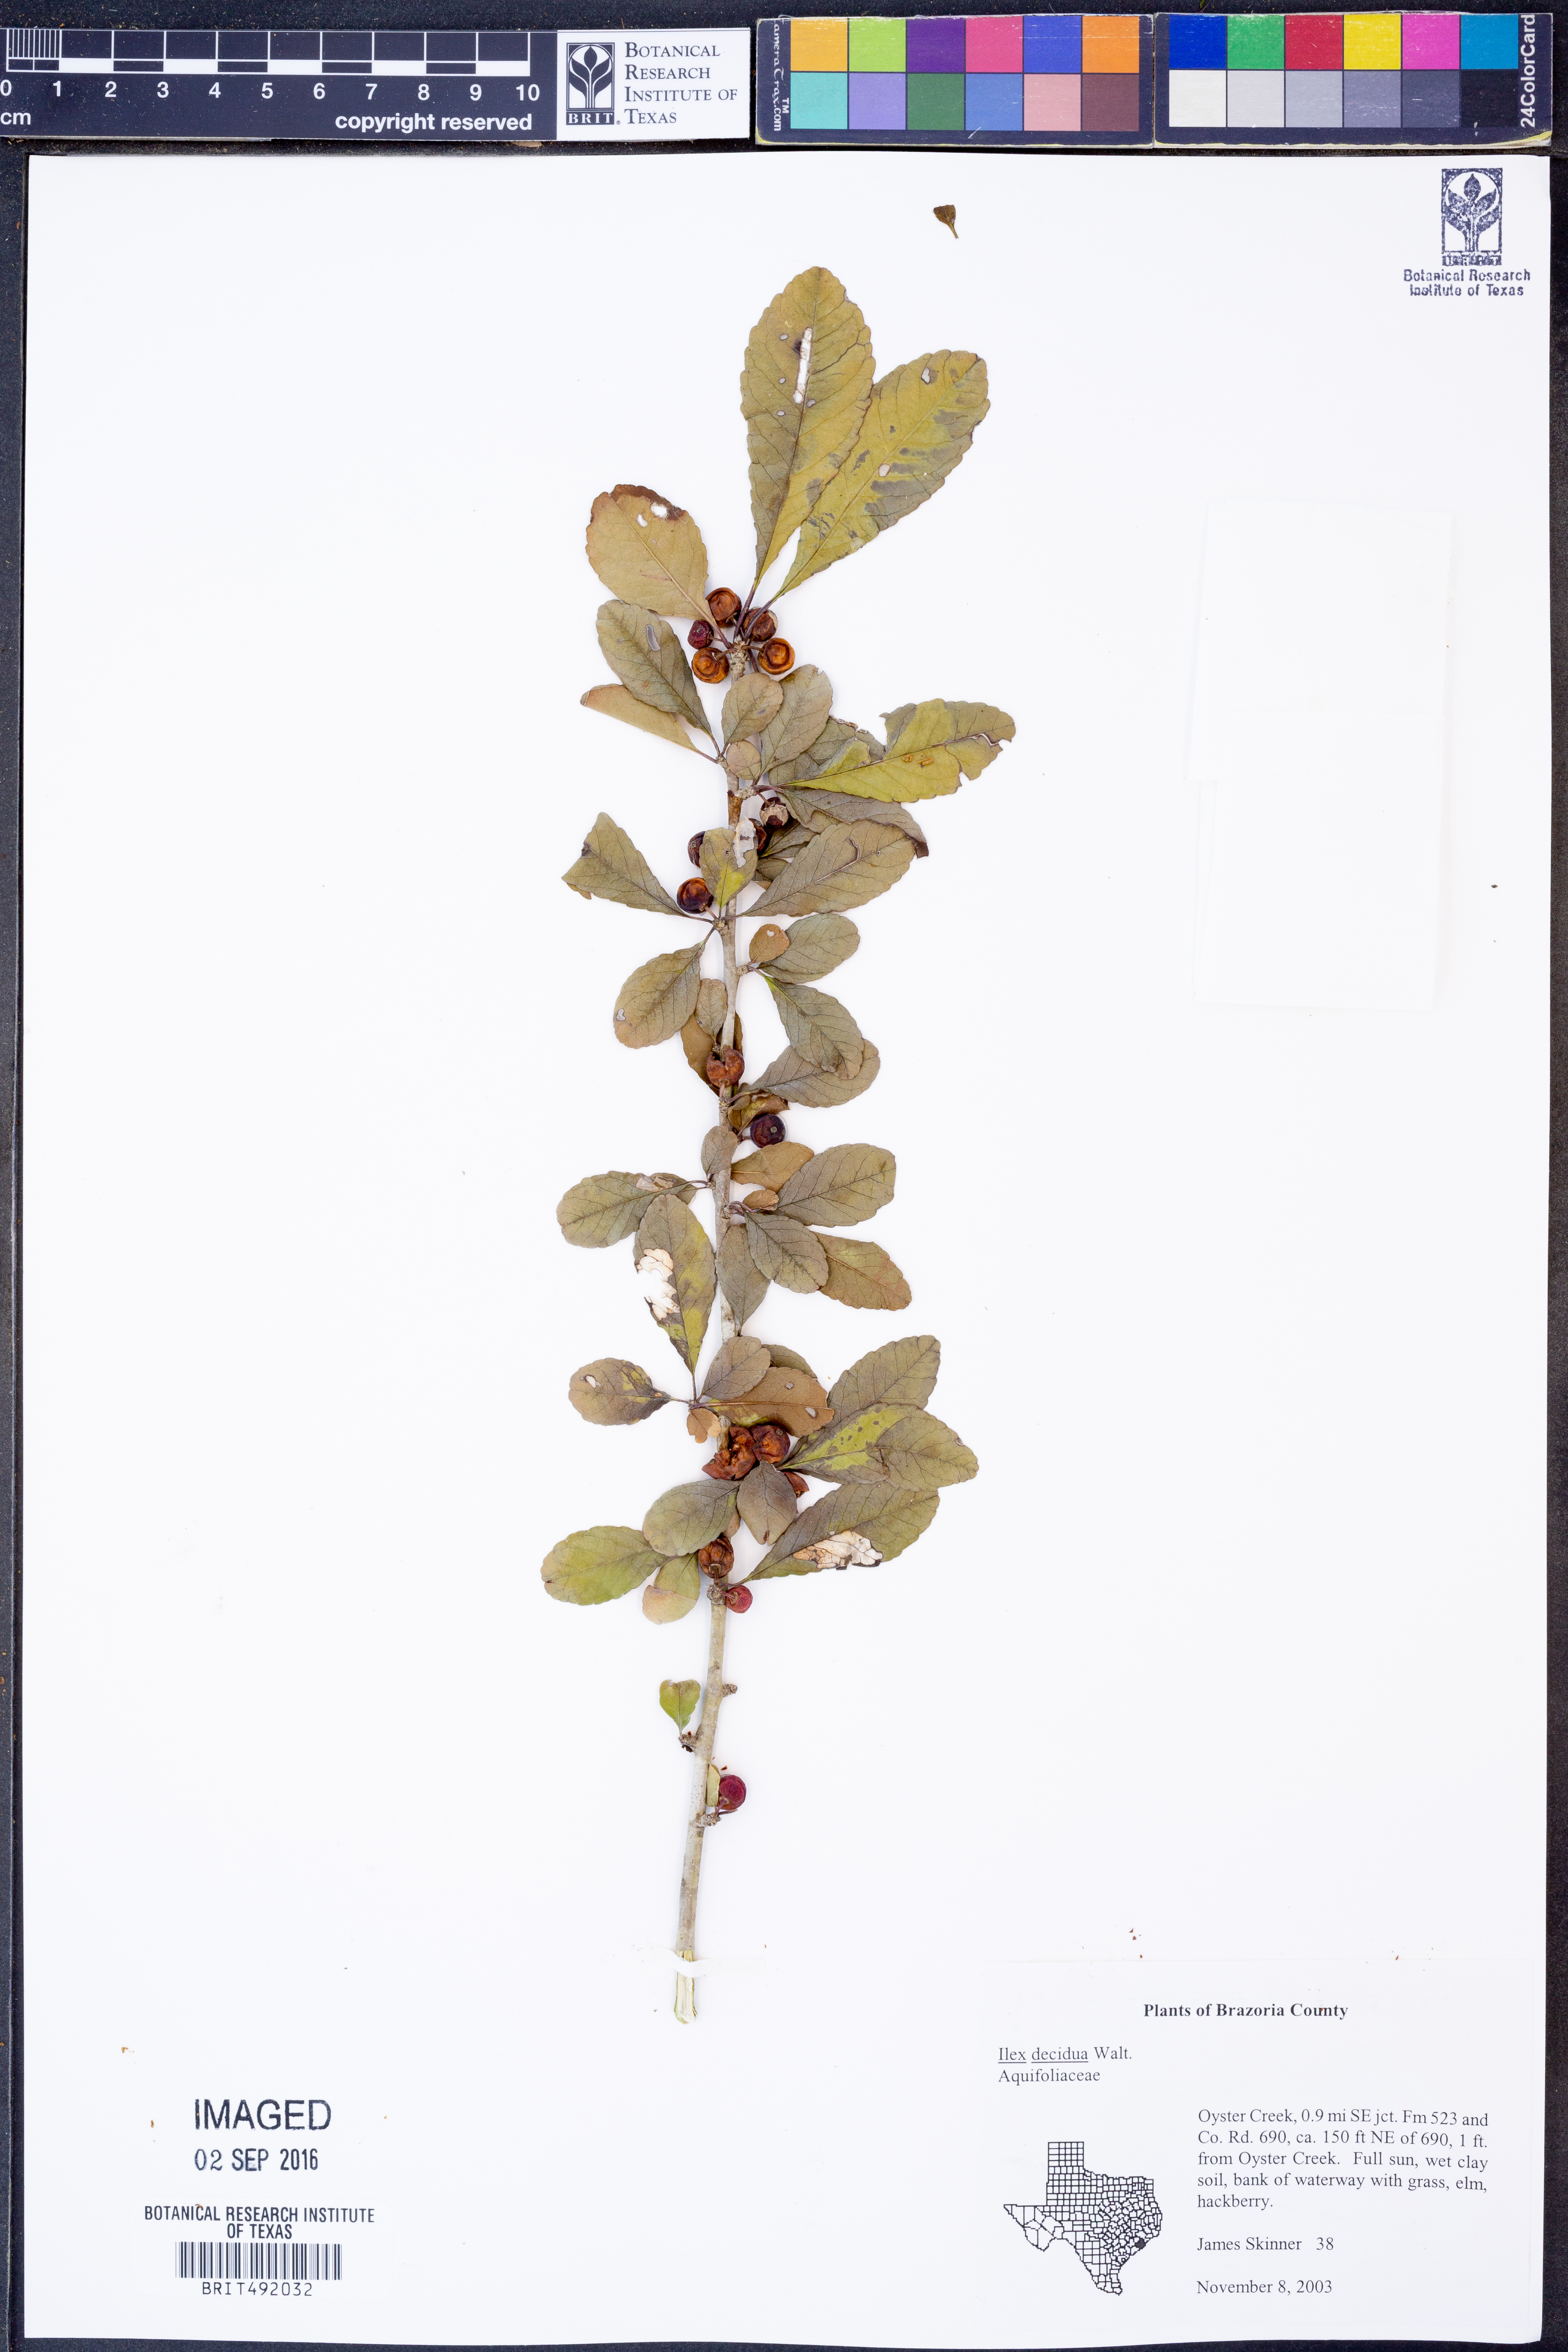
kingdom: Plantae
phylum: Tracheophyta
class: Magnoliopsida
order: Aquifoliales
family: Aquifoliaceae
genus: Ilex
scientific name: Ilex decidua
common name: Possum-haw
